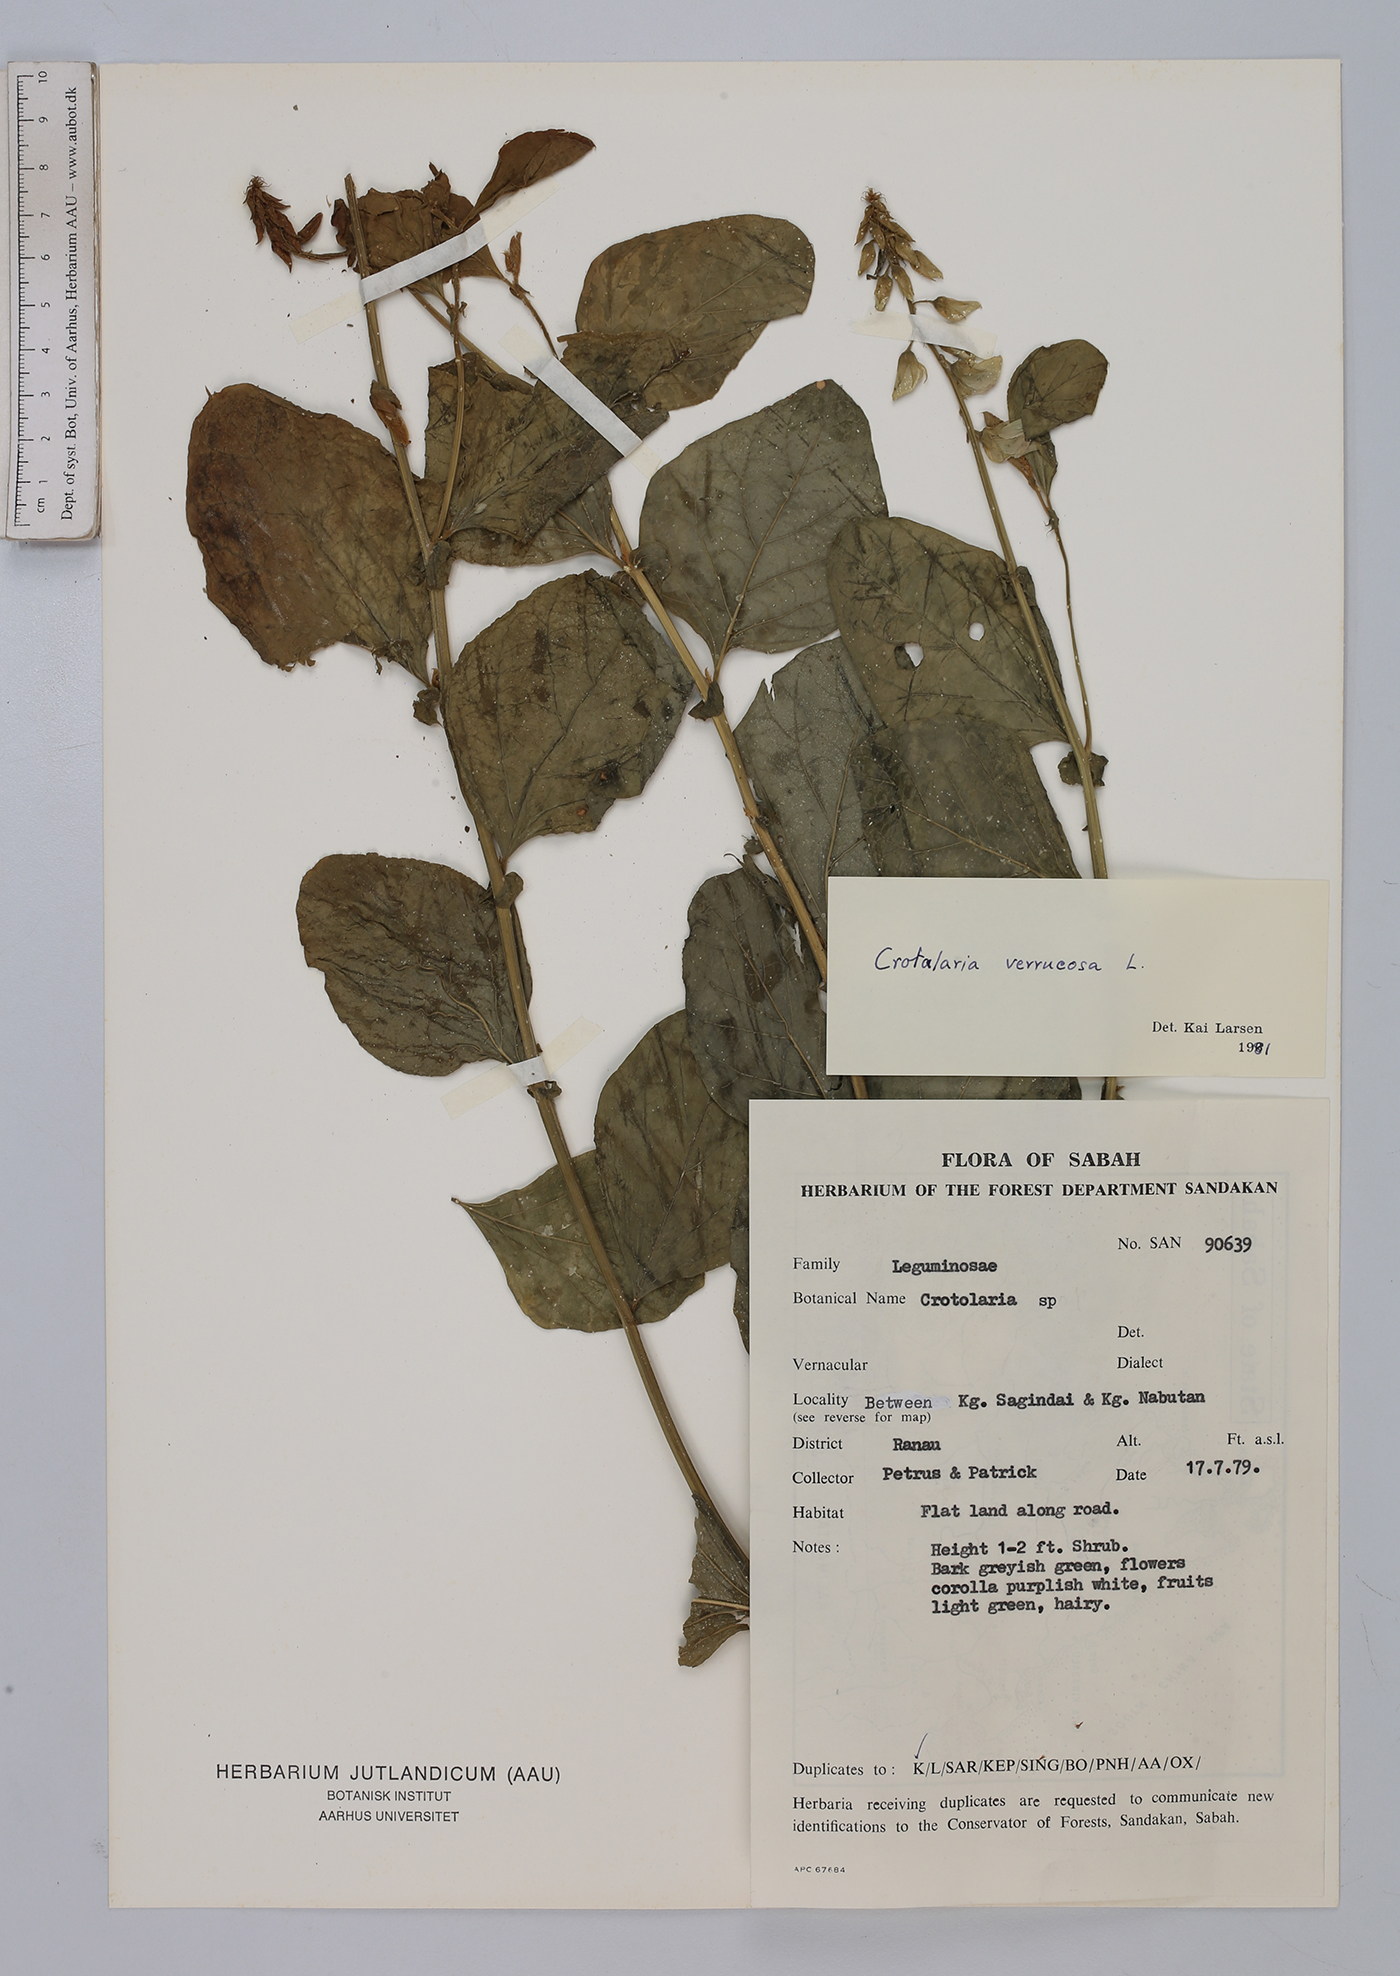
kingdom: Plantae
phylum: Tracheophyta
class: Magnoliopsida
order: Fabales
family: Fabaceae
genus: Crotalaria
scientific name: Crotalaria verrucosa
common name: Blue rattlesnake
